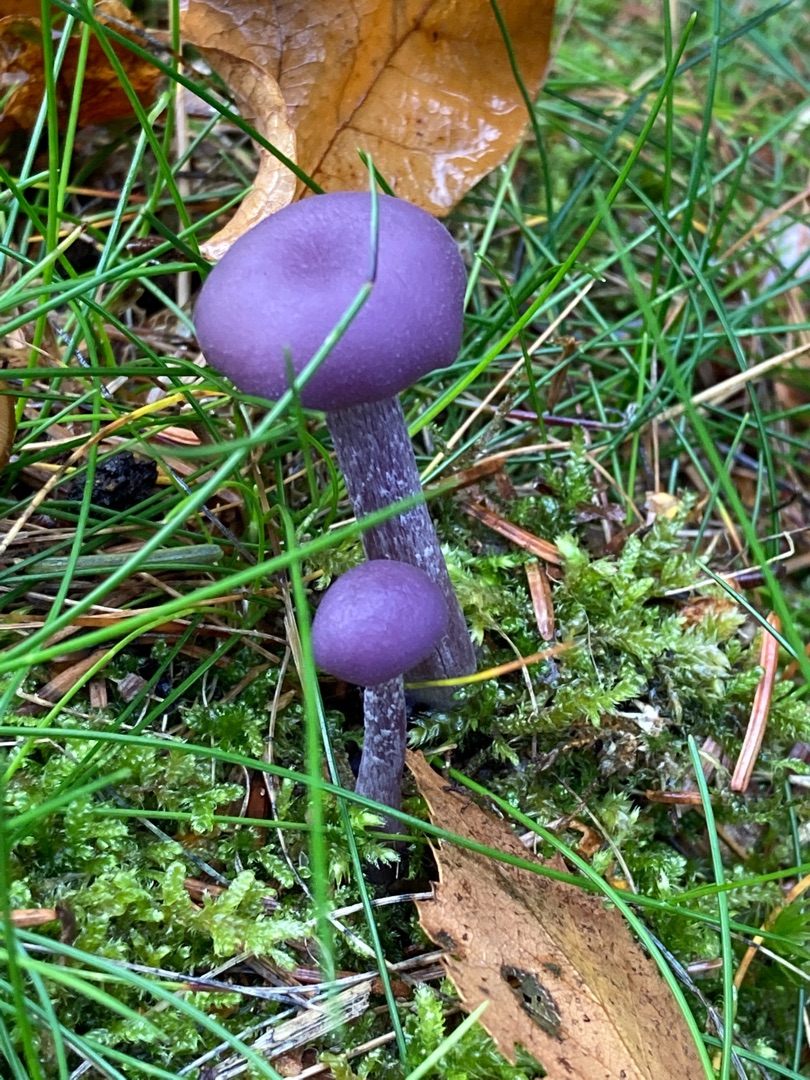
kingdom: Fungi
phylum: Basidiomycota
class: Agaricomycetes
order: Agaricales
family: Hydnangiaceae
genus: Laccaria
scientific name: Laccaria amethystina
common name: Violet ametysthat
